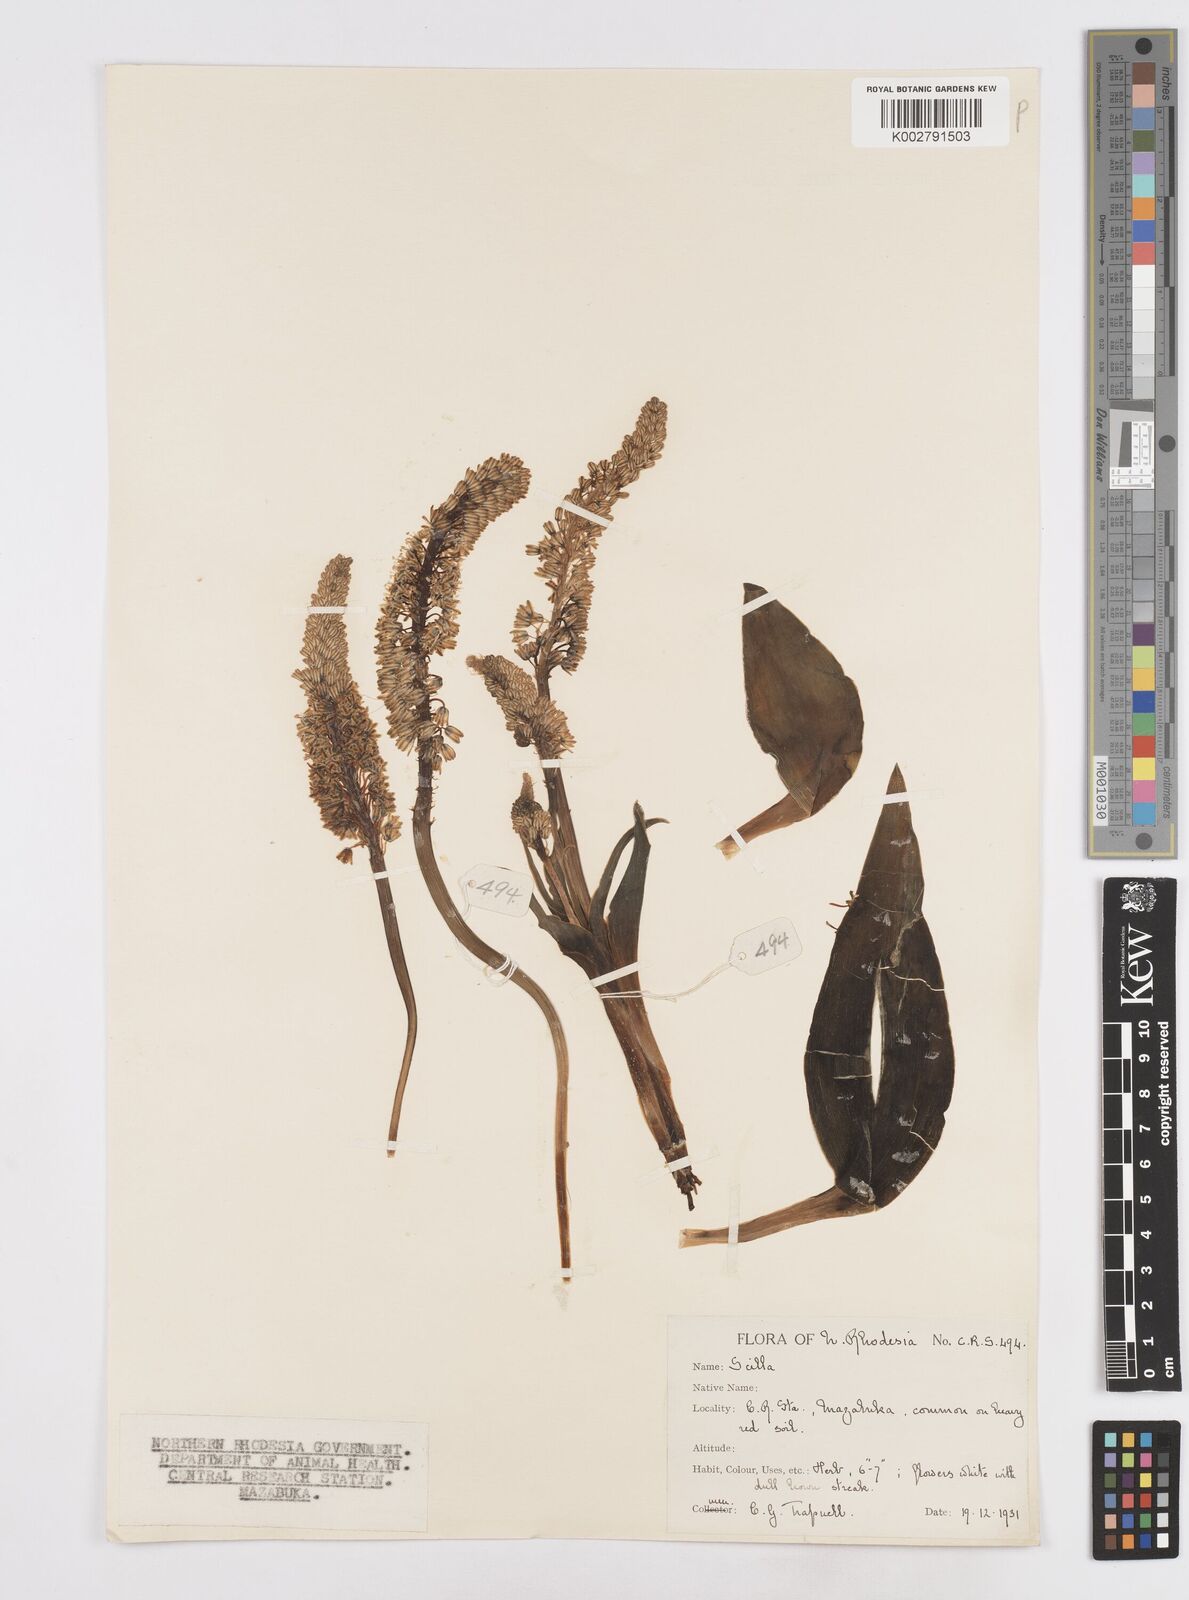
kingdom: Plantae
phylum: Tracheophyta
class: Liliopsida
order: Asparagales
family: Asparagaceae
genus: Scilla
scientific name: Scilla
